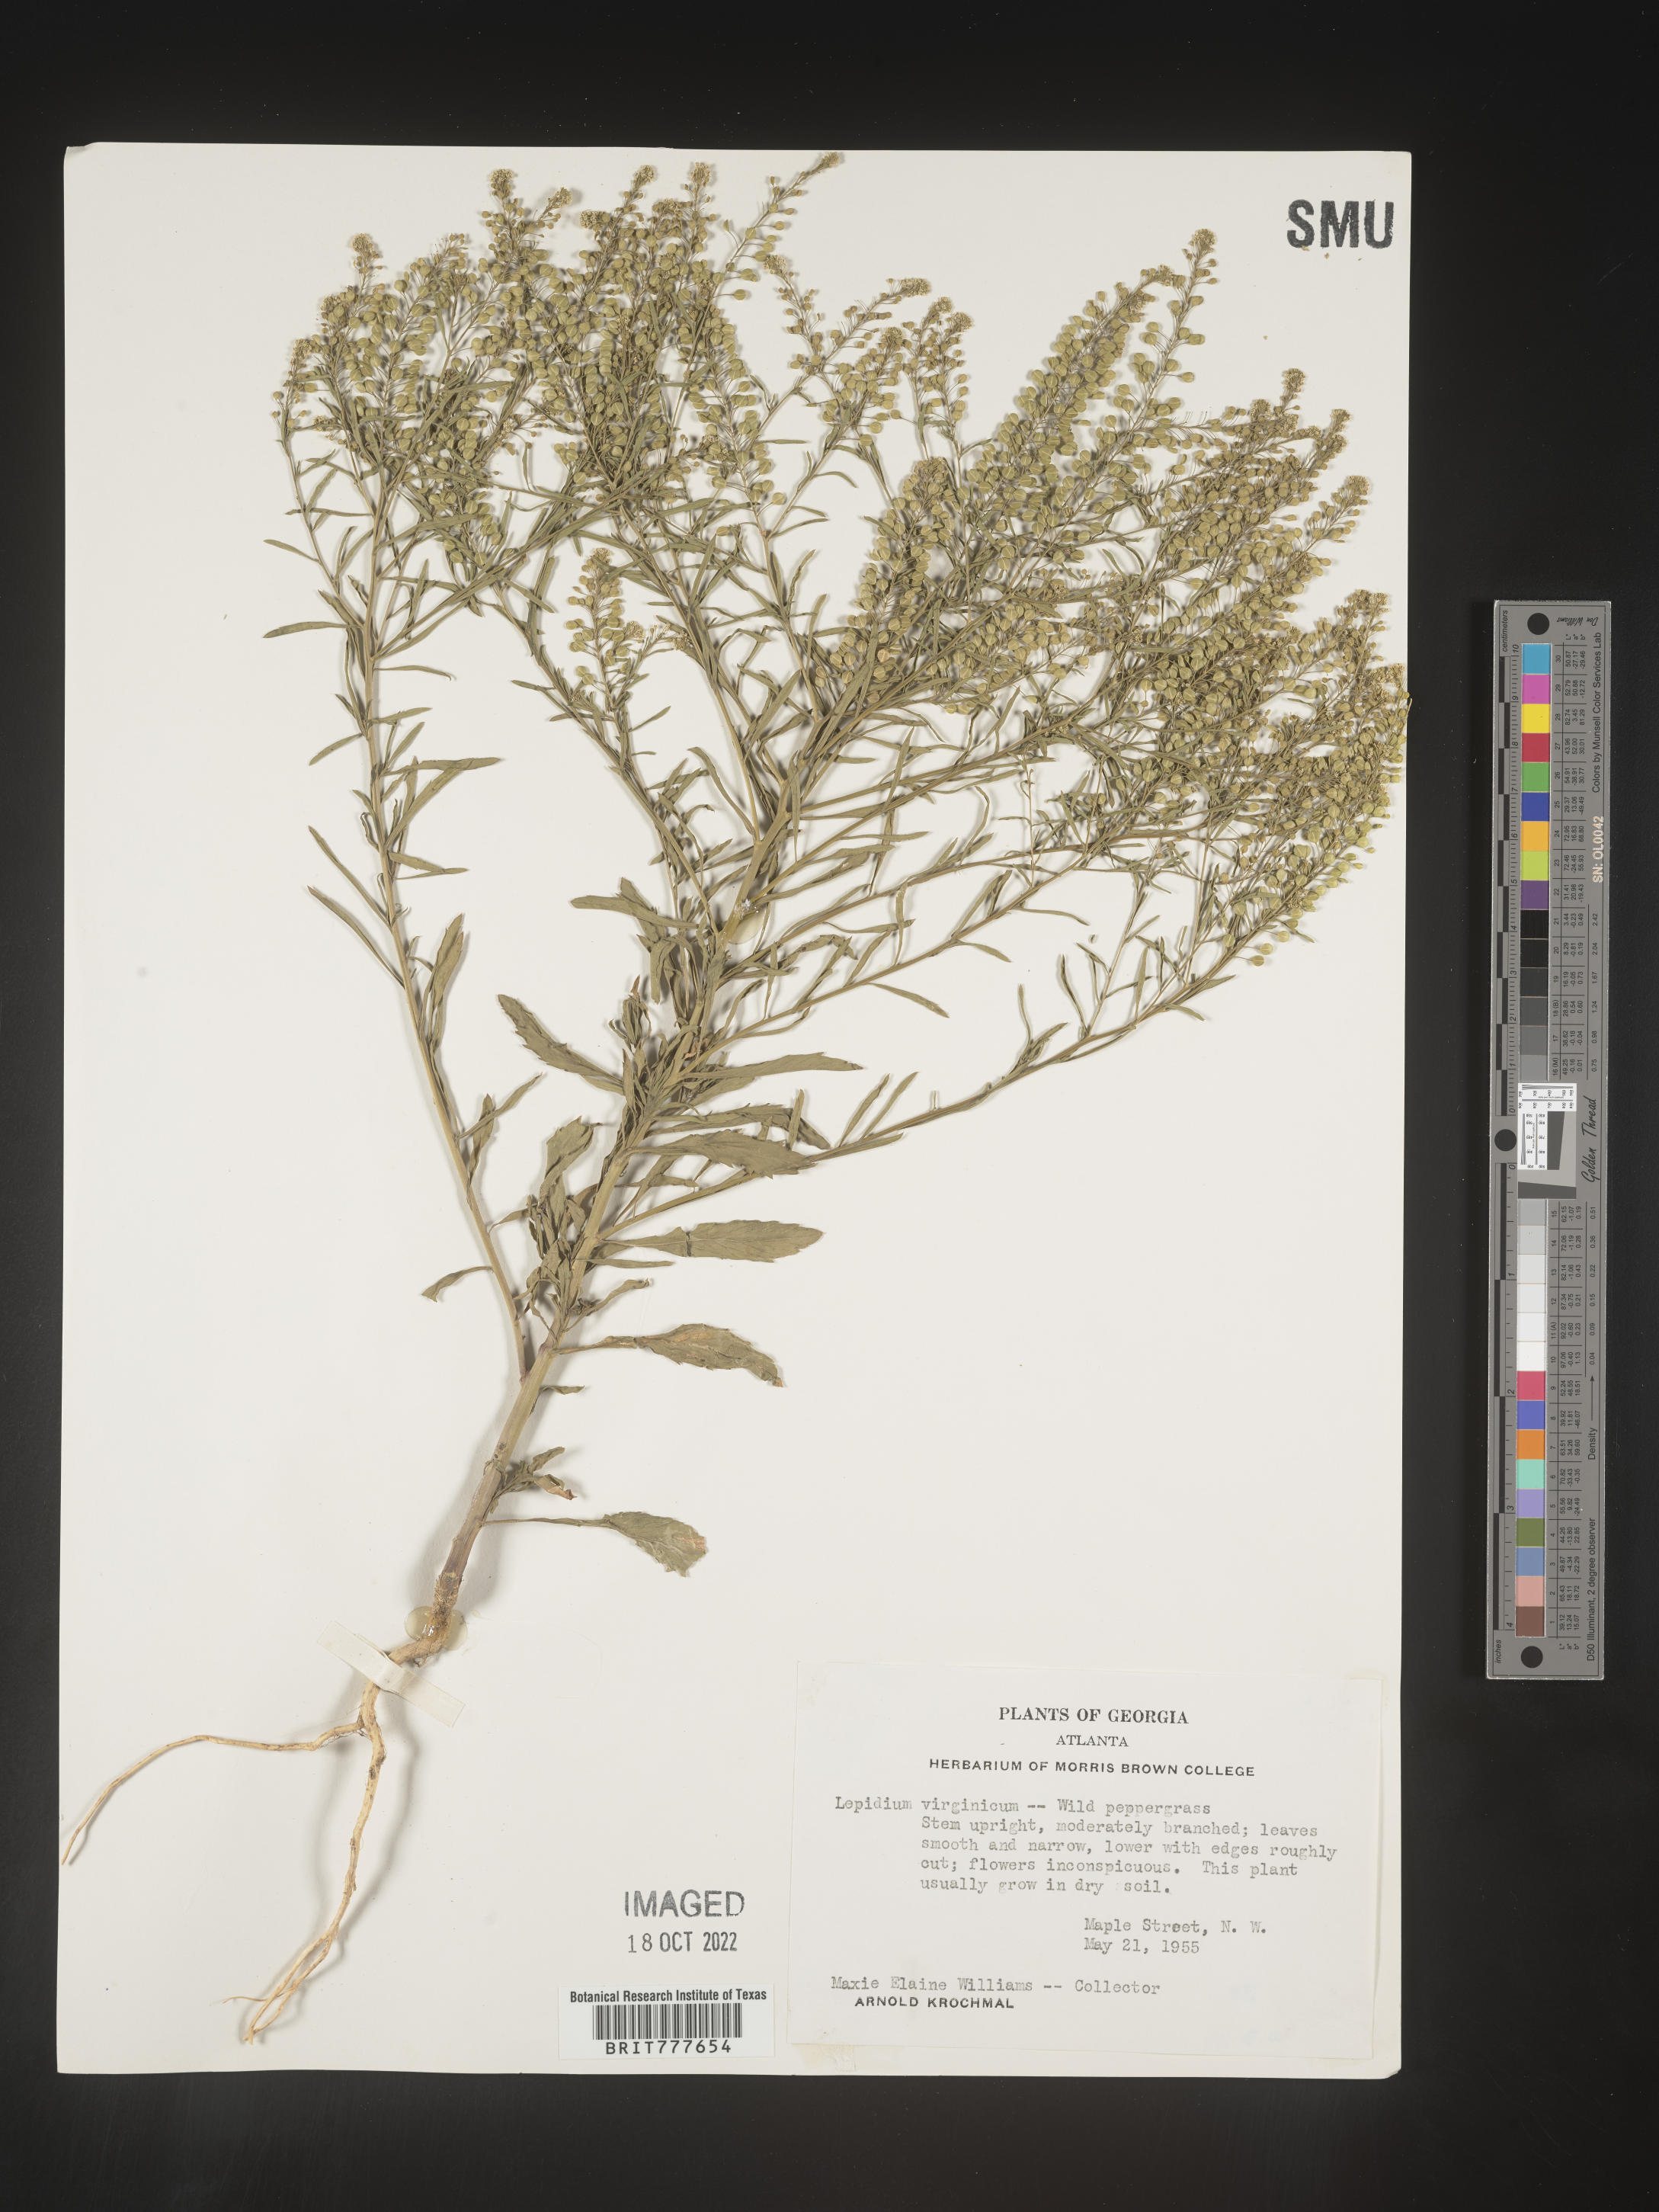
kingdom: Plantae
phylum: Tracheophyta
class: Magnoliopsida
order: Brassicales
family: Brassicaceae
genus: Lepidium
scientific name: Lepidium virginicum
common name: Least pepperwort
